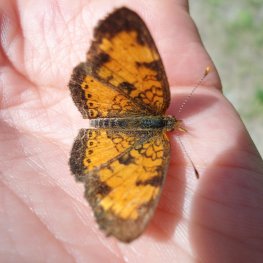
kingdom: Animalia
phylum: Arthropoda
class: Insecta
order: Lepidoptera
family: Nymphalidae
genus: Phyciodes
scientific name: Phyciodes tharos
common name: Northern Crescent
